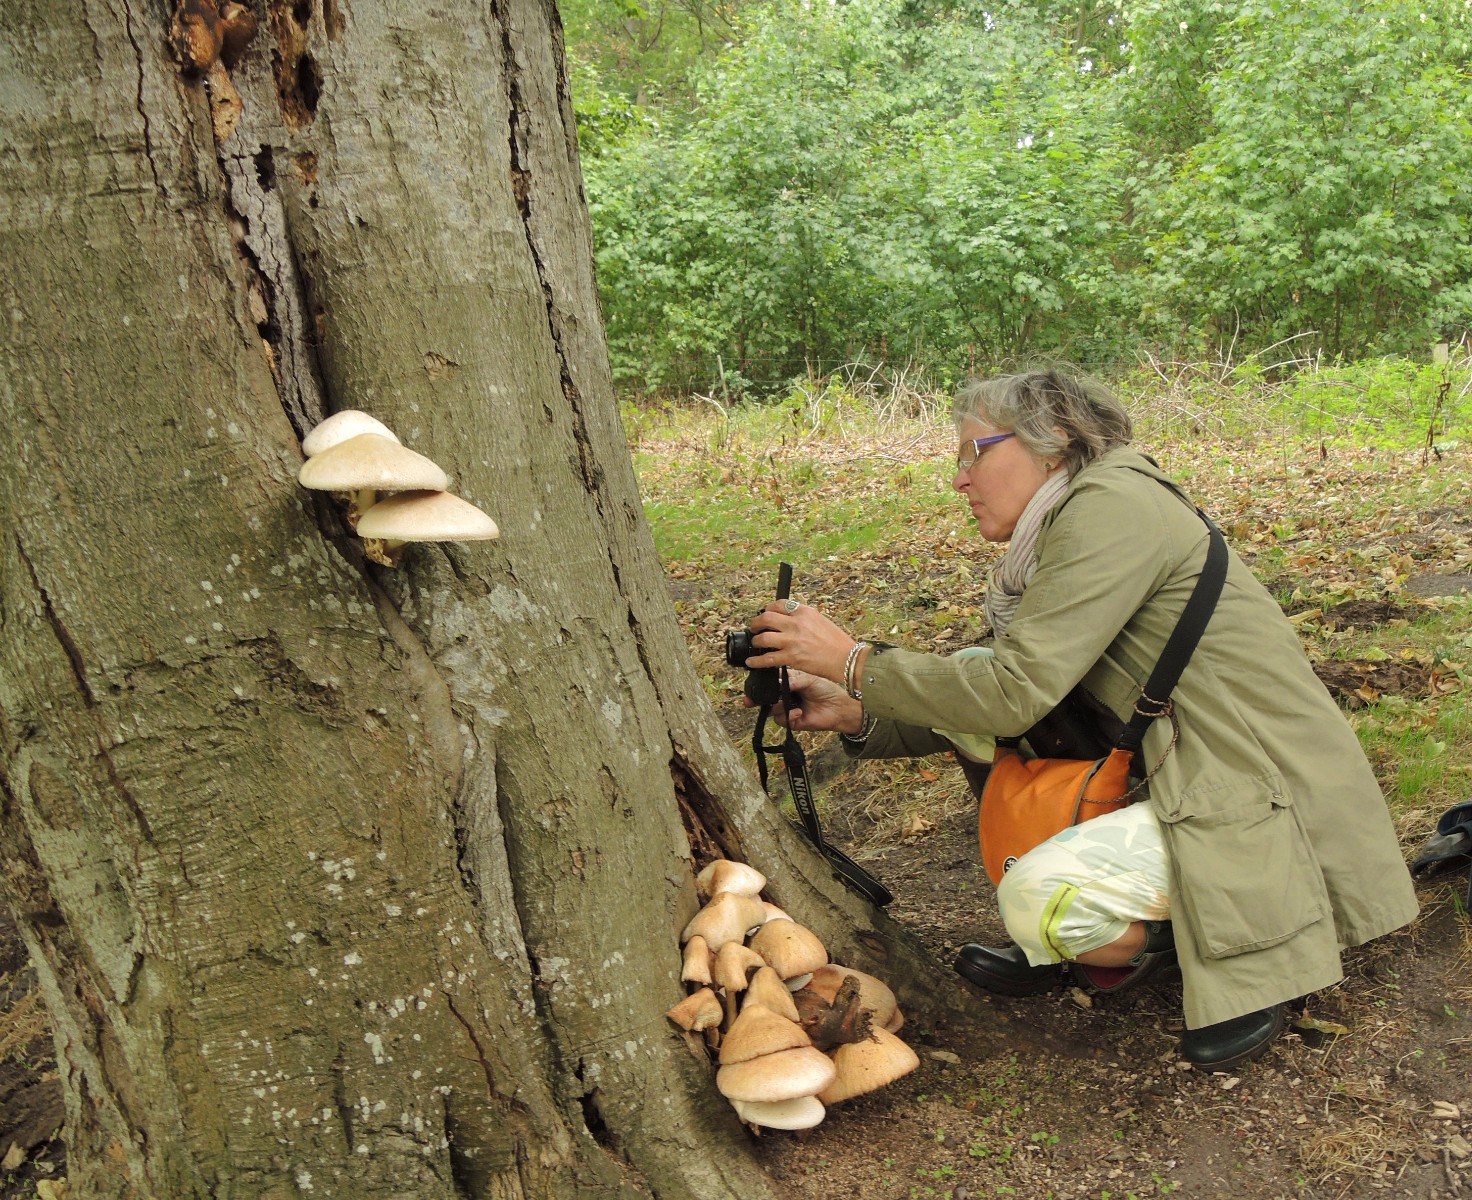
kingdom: Fungi
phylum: Basidiomycota
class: Agaricomycetes
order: Agaricales
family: Pluteaceae
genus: Volvariella
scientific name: Volvariella bombycina
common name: silkehåret posesvamp
